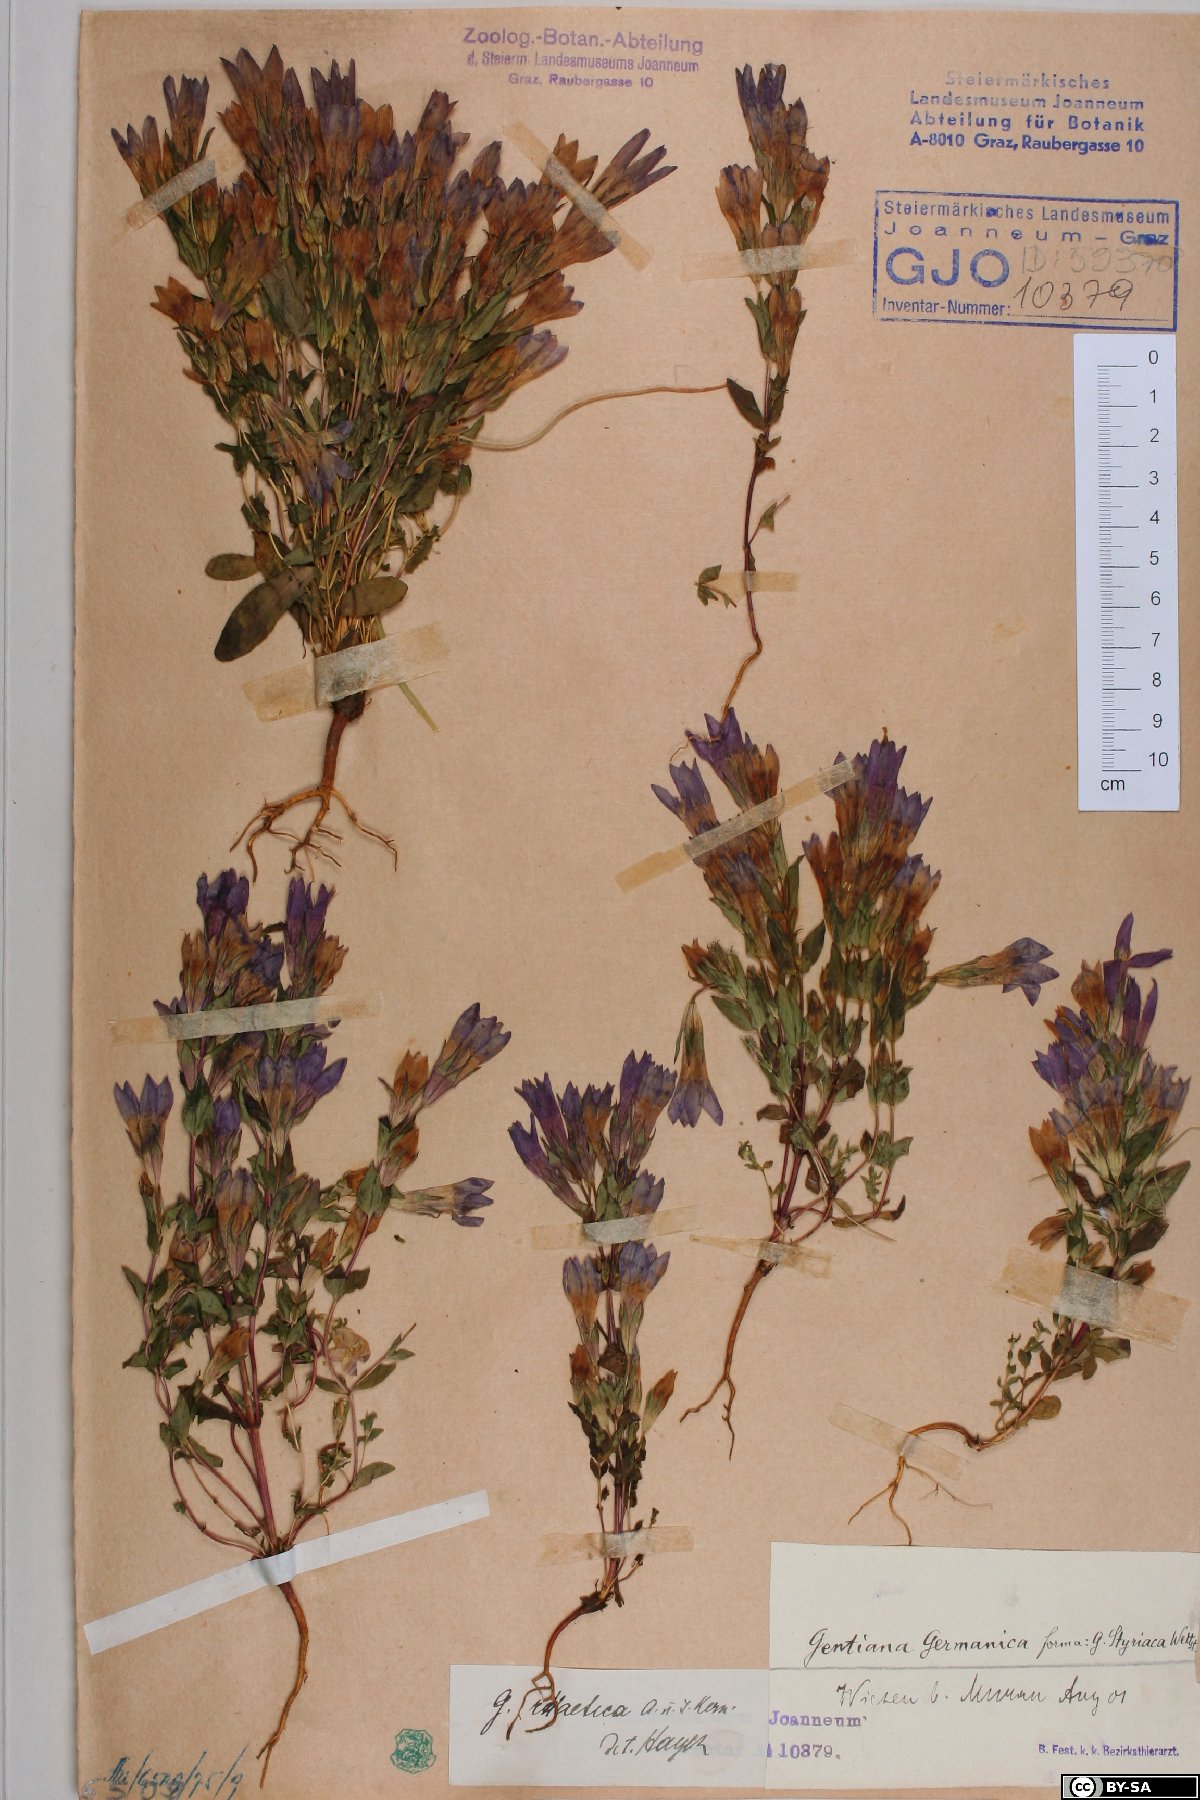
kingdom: Plantae
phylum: Tracheophyta
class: Magnoliopsida
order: Gentianales
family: Gentianaceae
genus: Gentianella
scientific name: Gentianella rhaetica
